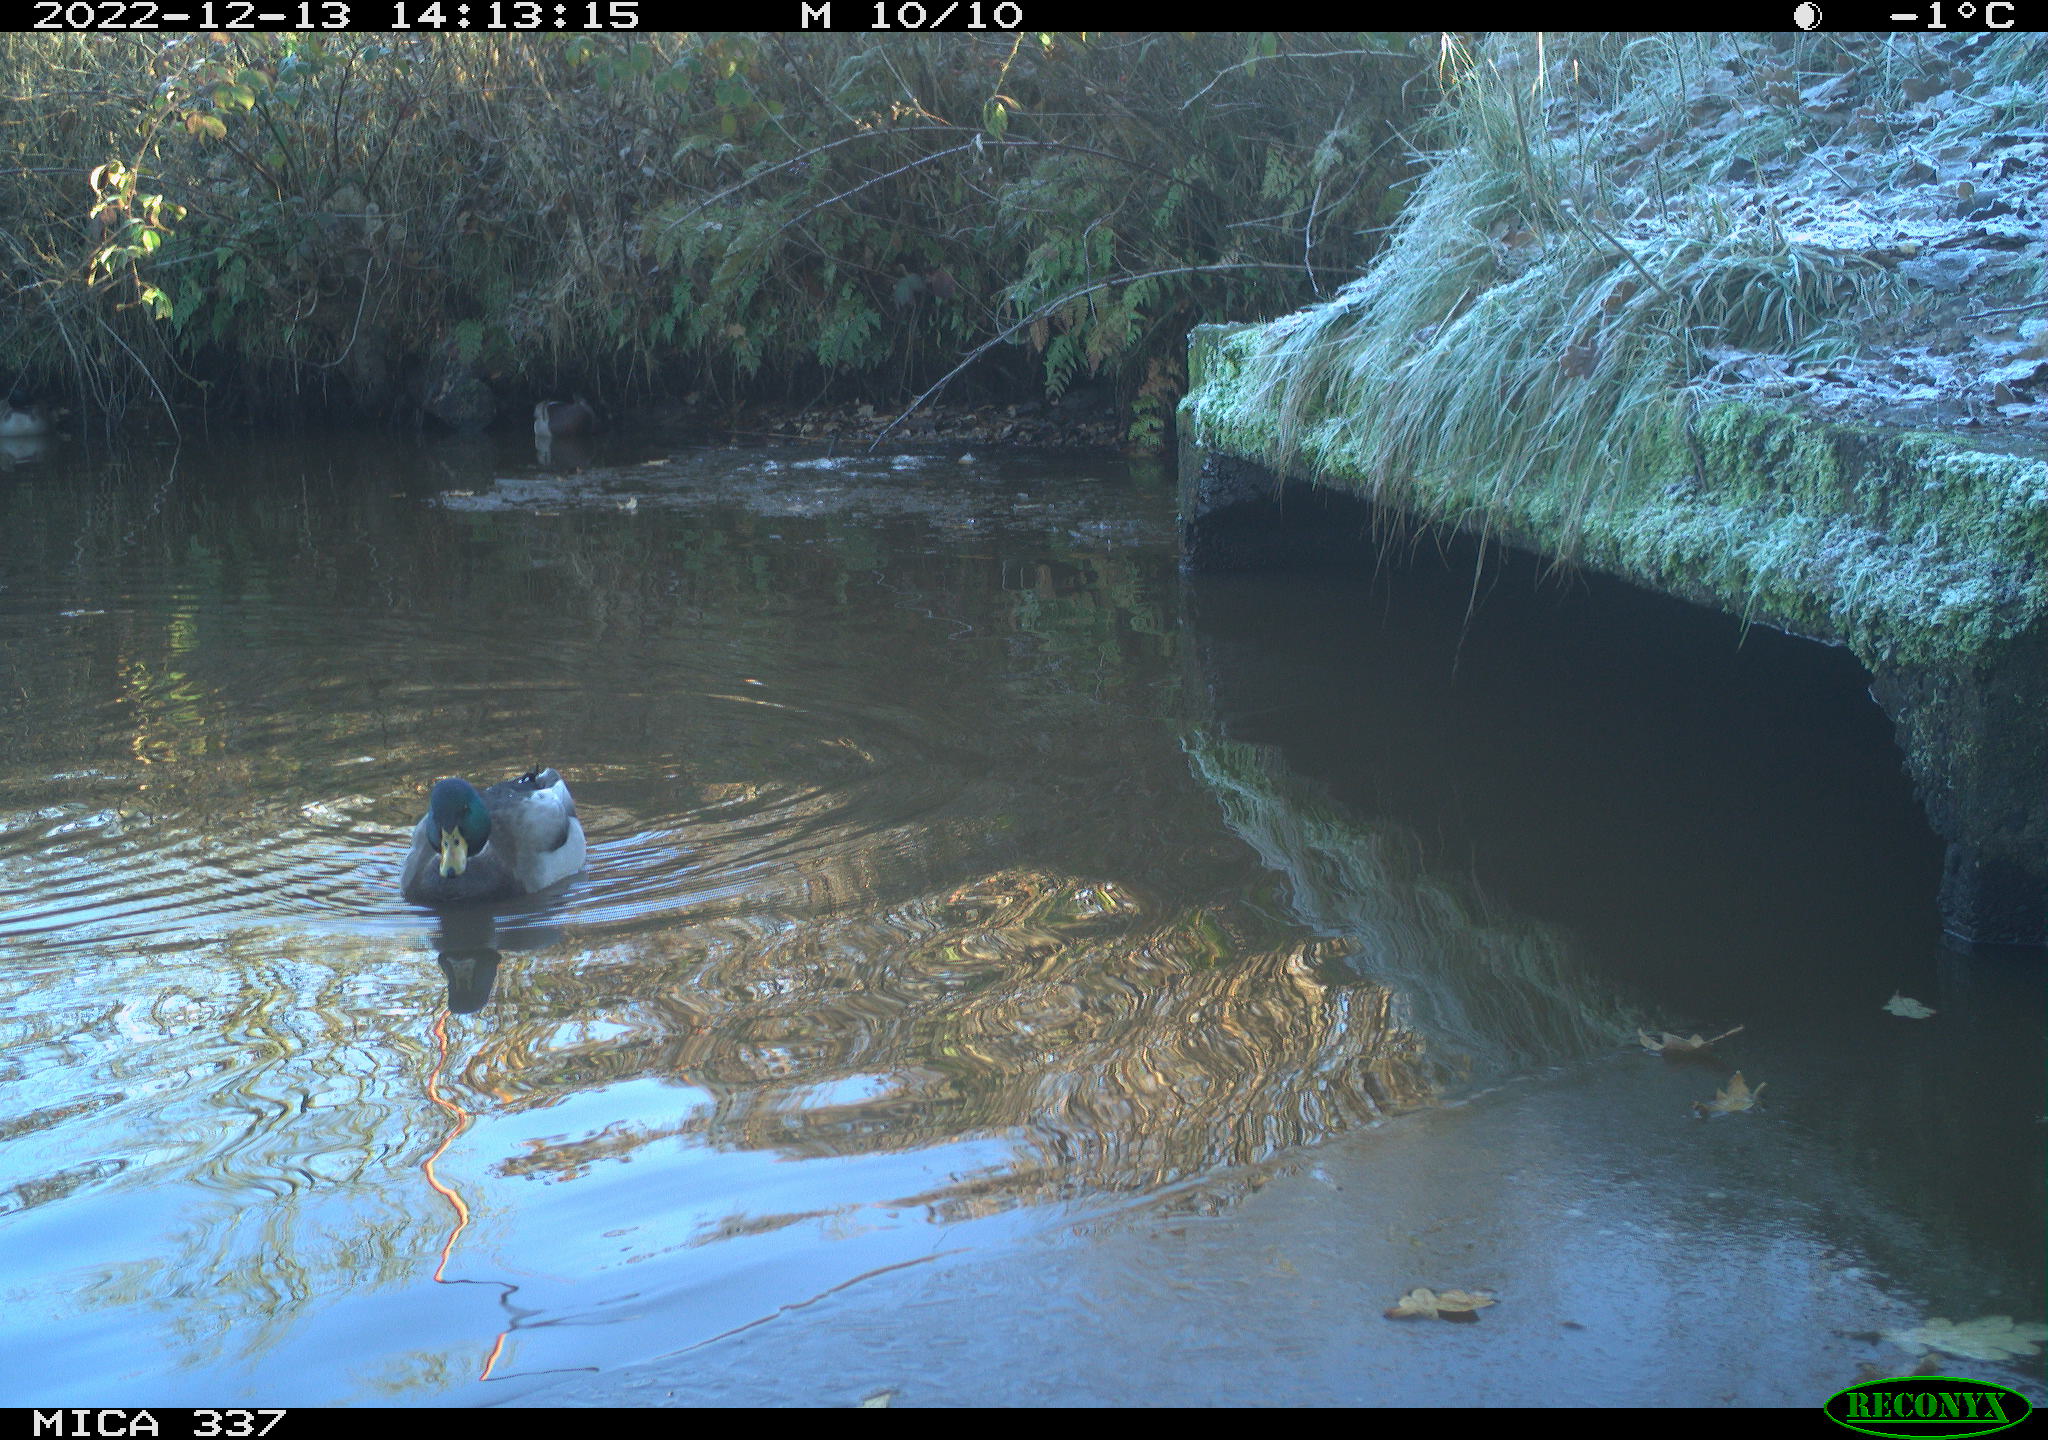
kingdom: Animalia
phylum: Chordata
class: Aves
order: Anseriformes
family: Anatidae
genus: Anas
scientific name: Anas
